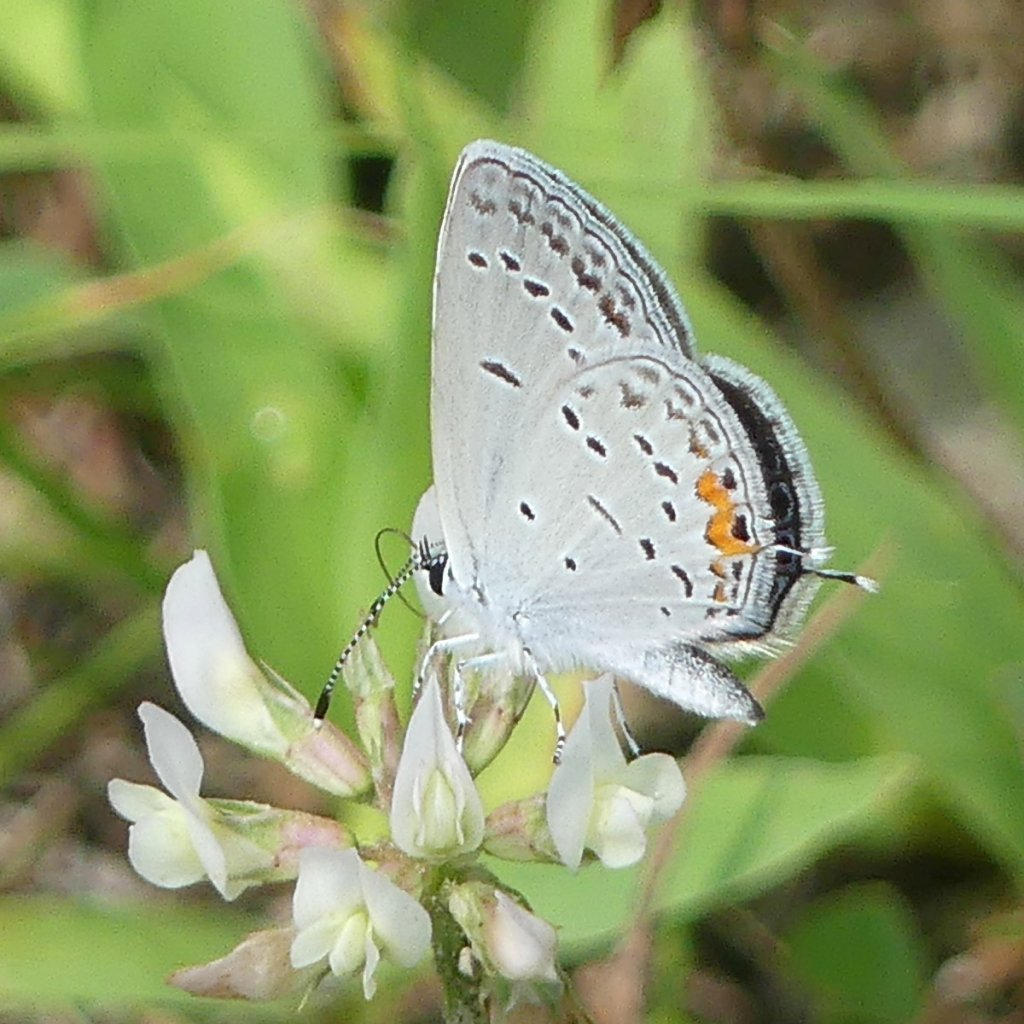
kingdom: Animalia
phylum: Arthropoda
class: Insecta
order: Lepidoptera
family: Lycaenidae
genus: Elkalyce
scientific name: Elkalyce comyntas
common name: Eastern Tailed-Blue
